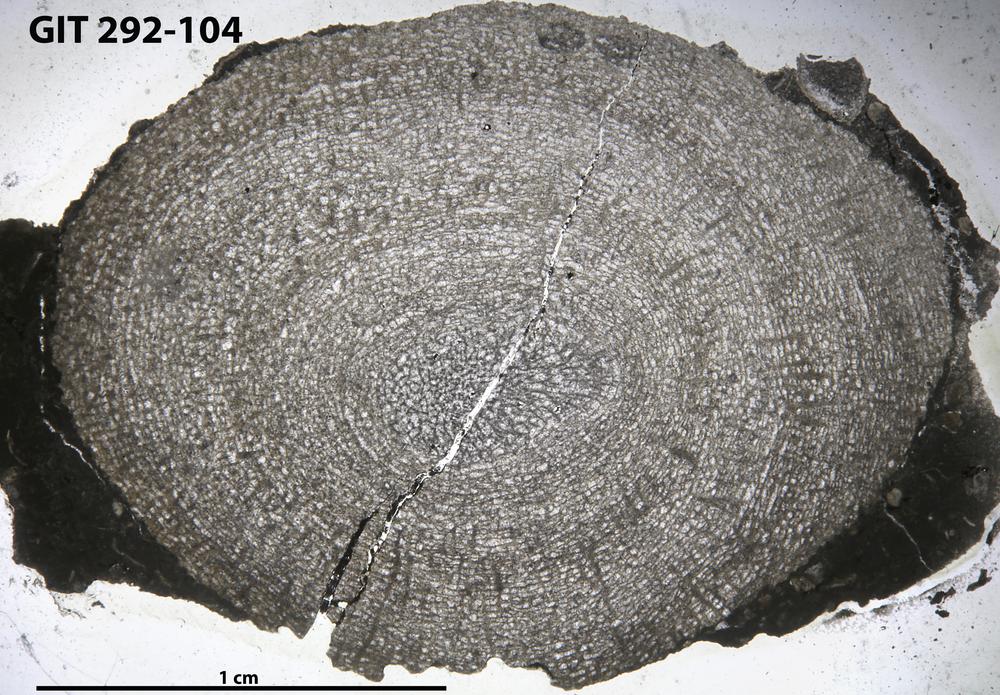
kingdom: Animalia
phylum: Porifera
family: Pseudolabechiidae
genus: Vikingia
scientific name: Vikingia
